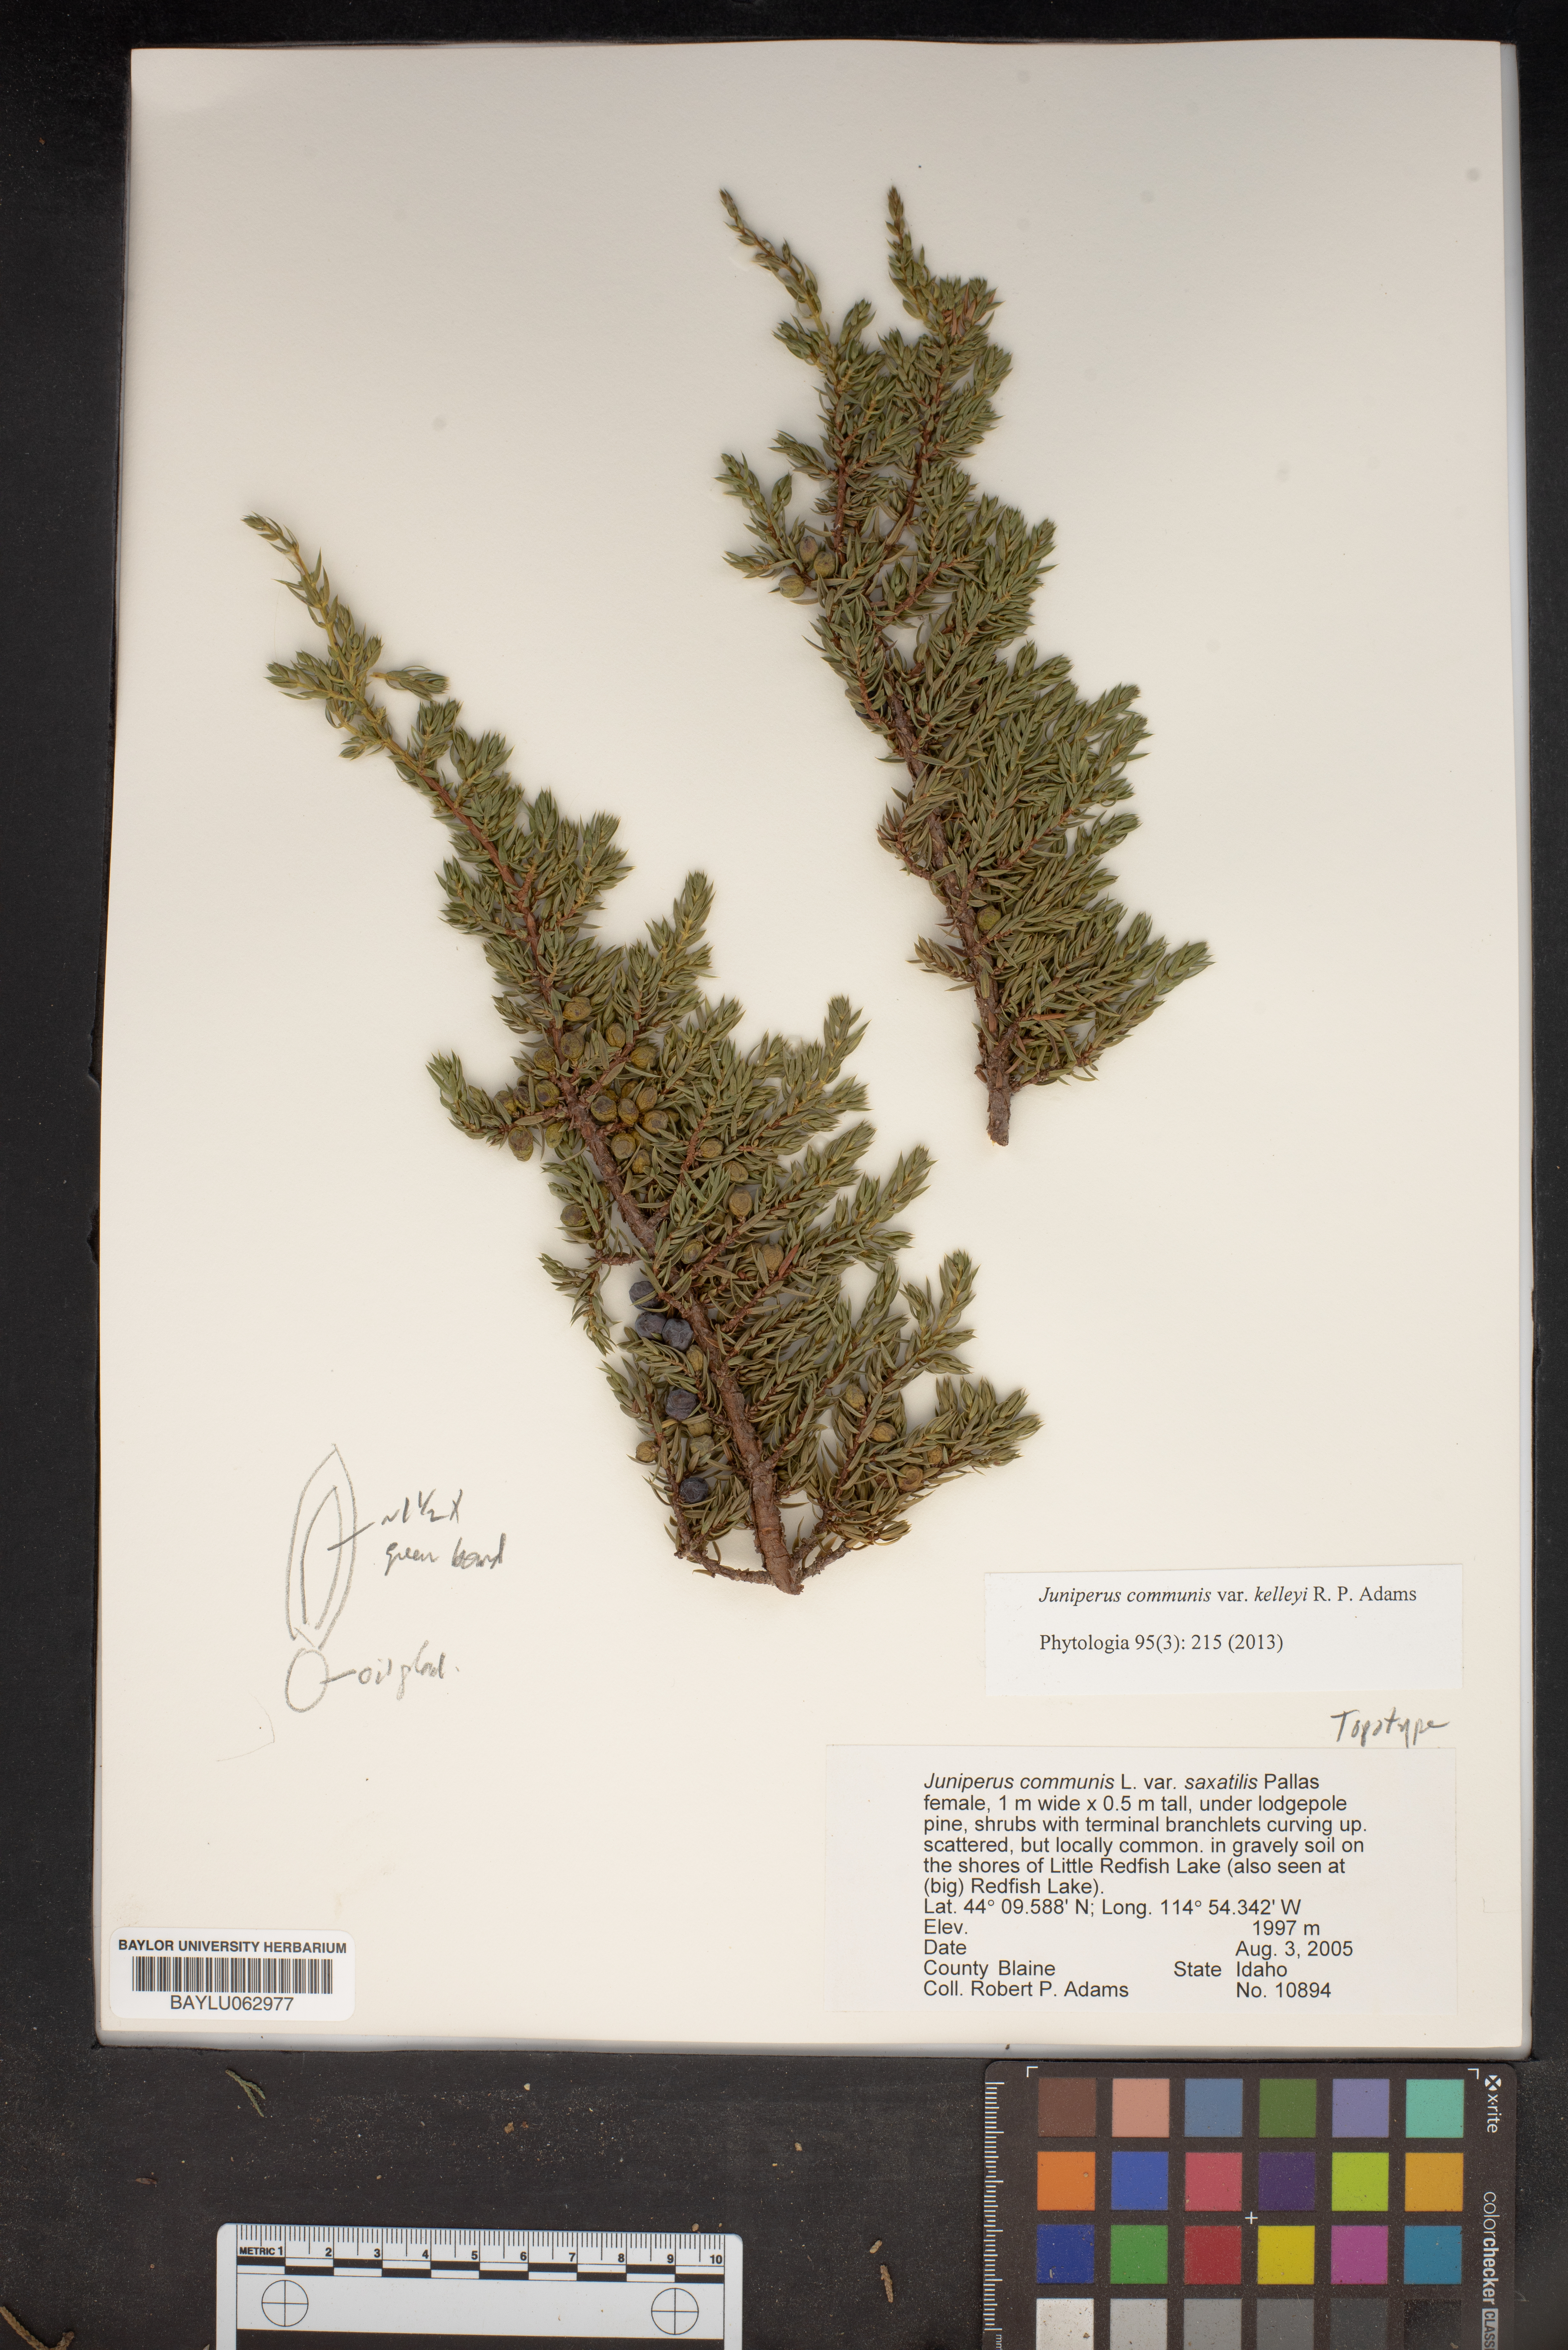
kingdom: Plantae
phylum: Tracheophyta
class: Pinopsida
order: Pinales
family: Cupressaceae
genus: Juniperus
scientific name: Juniperus communis
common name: Common juniper
